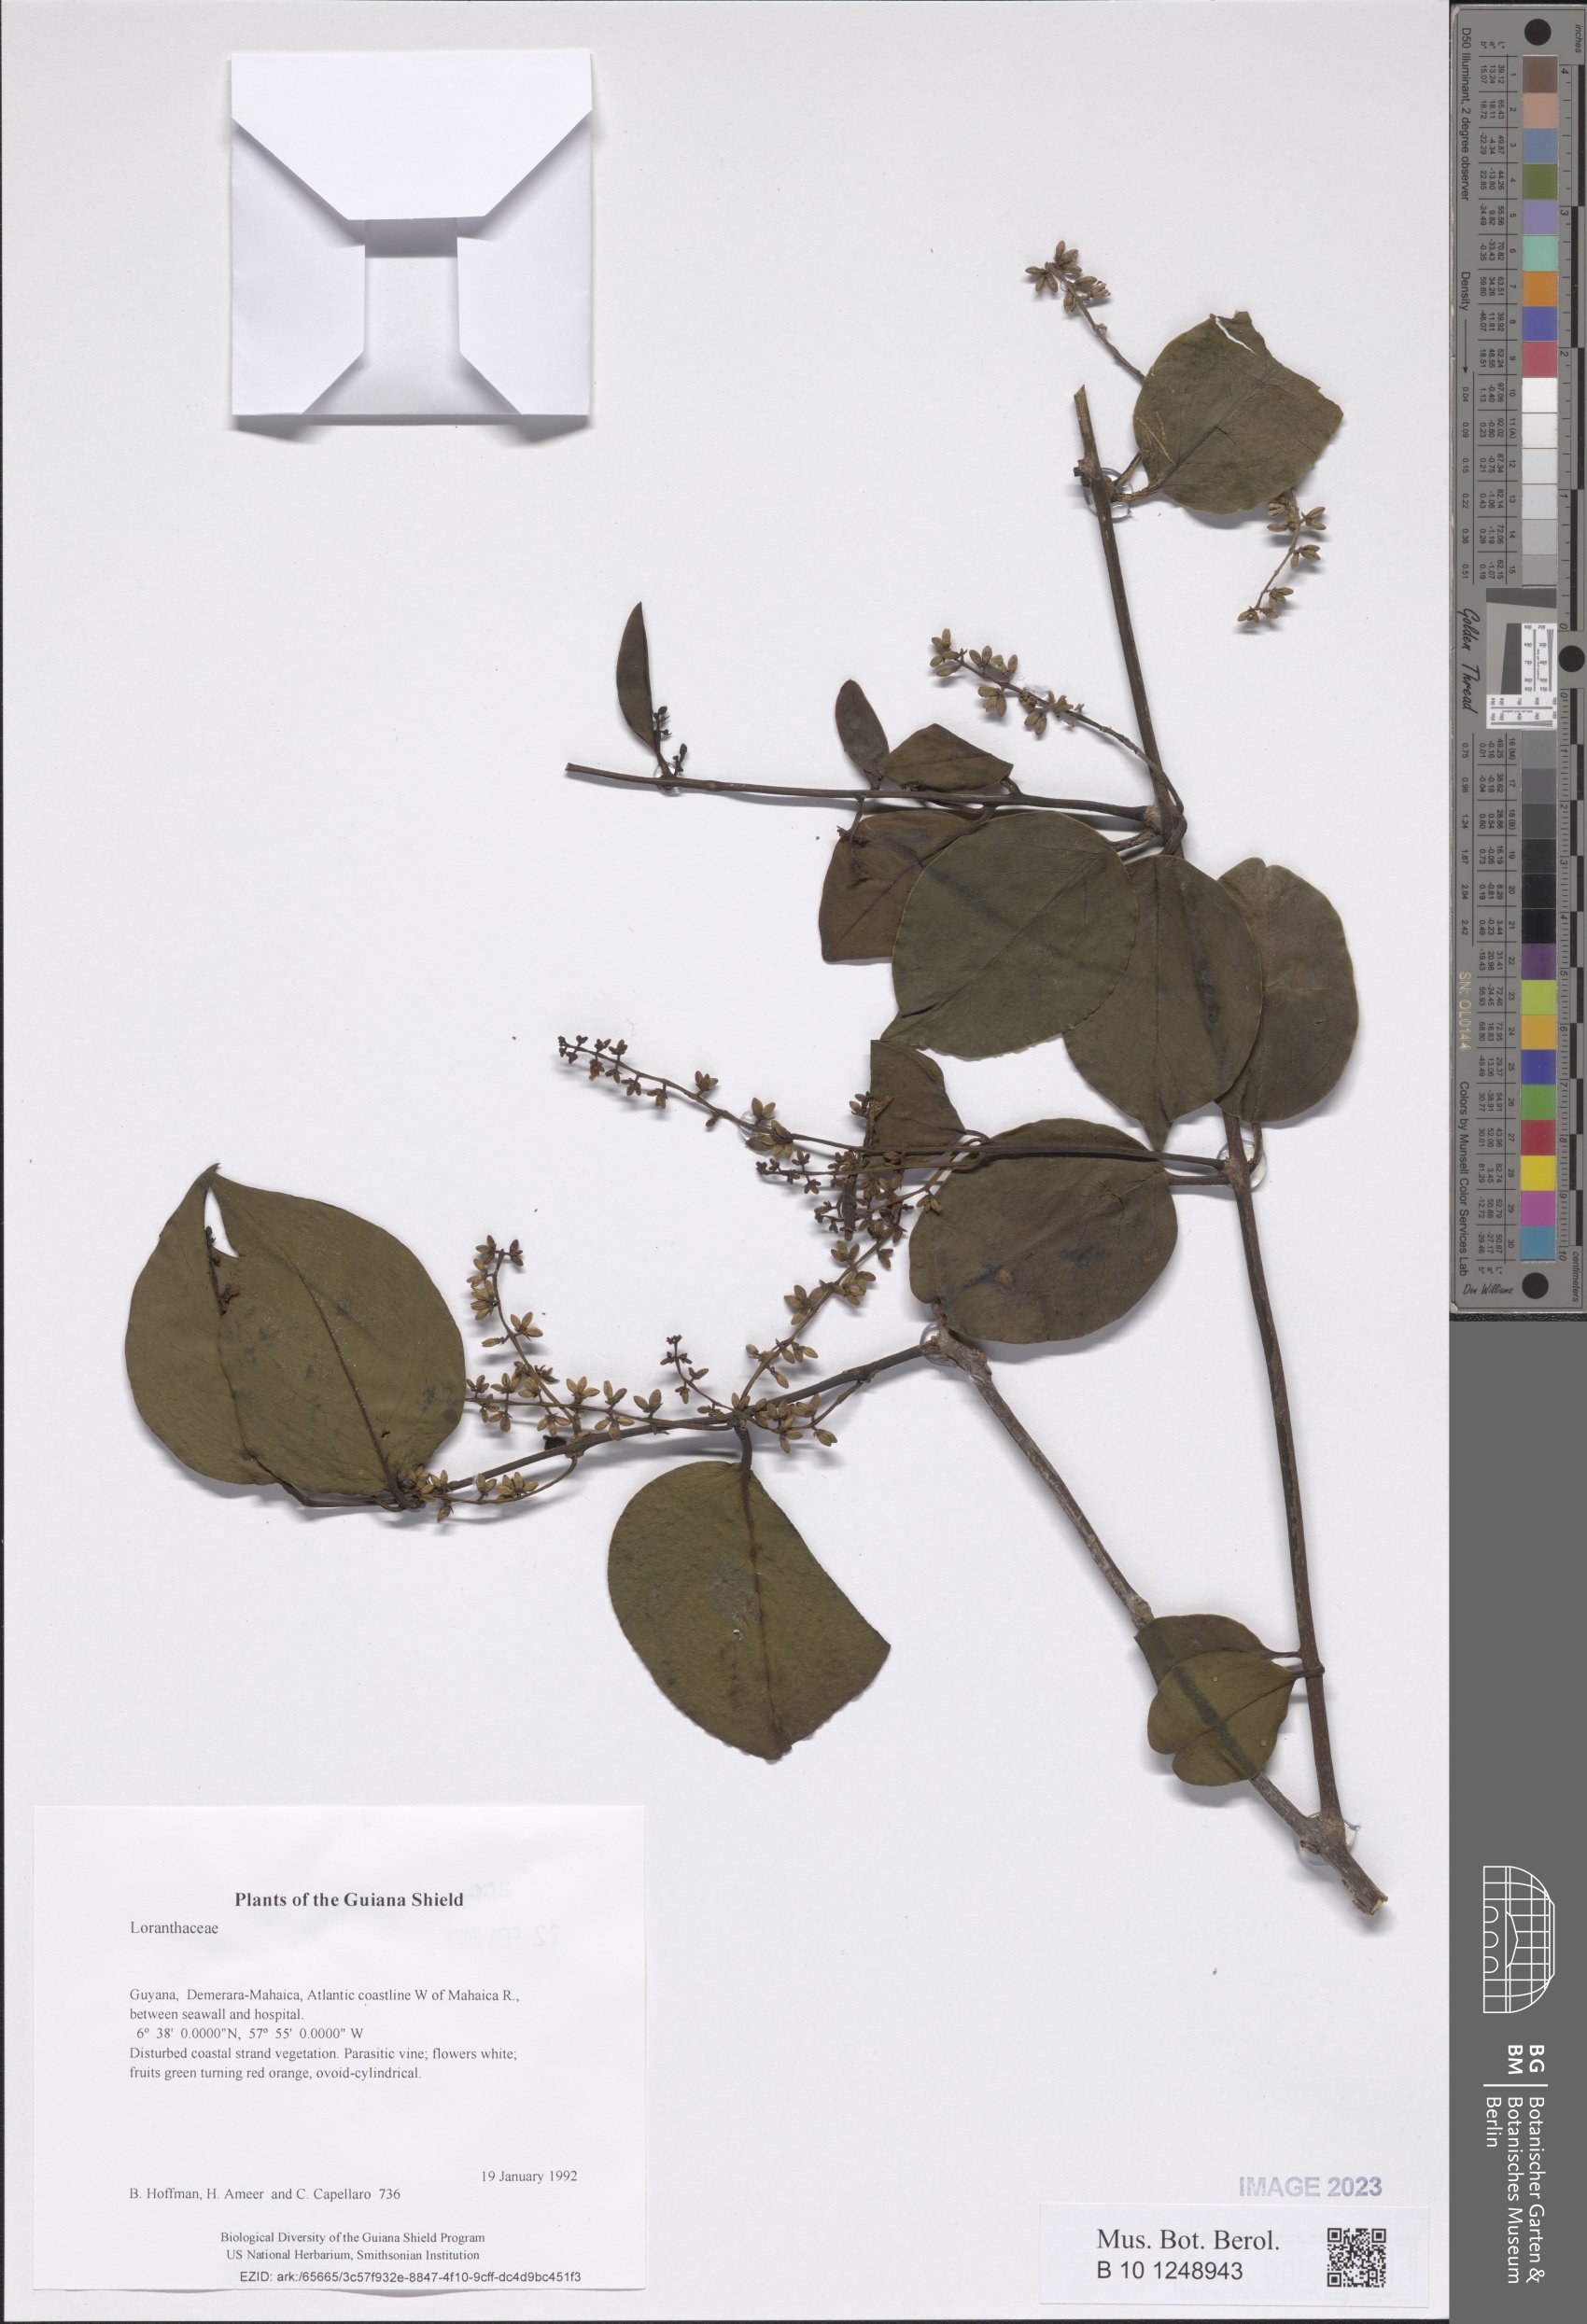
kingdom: Plantae
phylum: Tracheophyta
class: Magnoliopsida
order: Santalales
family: Loranthaceae
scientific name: Loranthaceae
